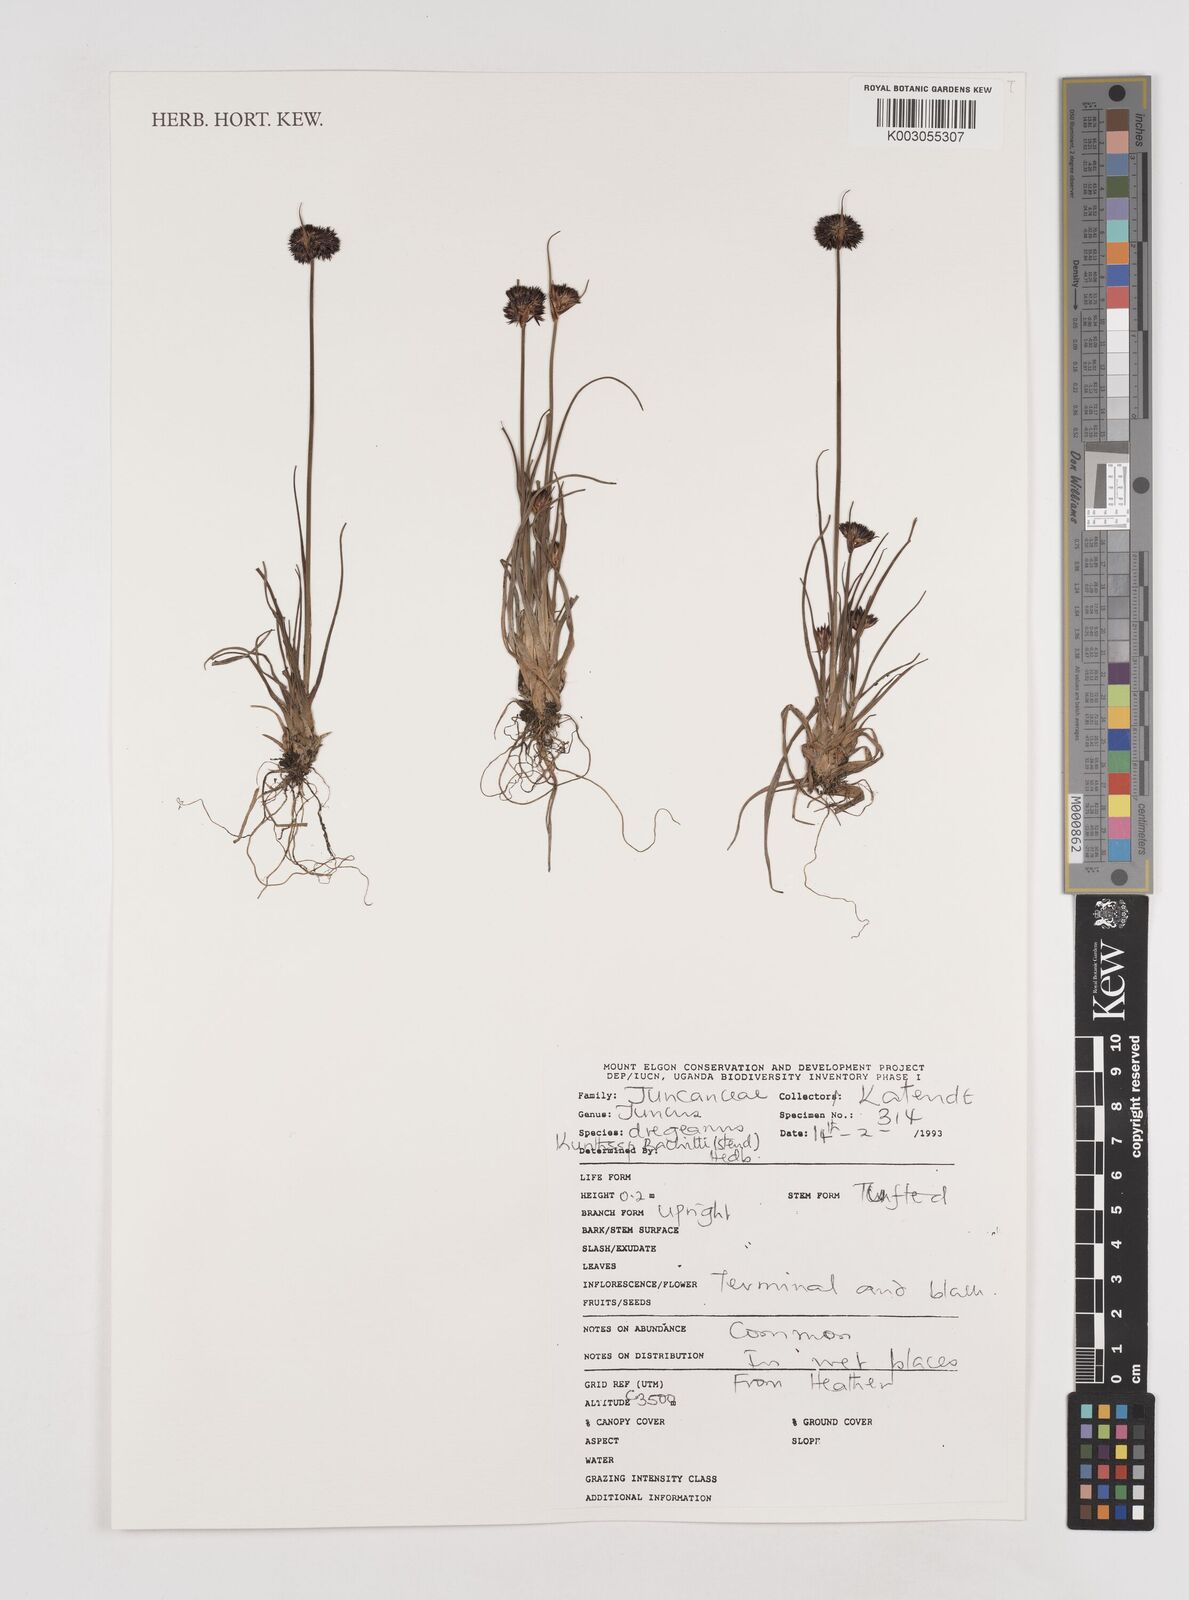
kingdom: Plantae
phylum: Tracheophyta
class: Liliopsida
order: Poales
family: Juncaceae
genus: Juncus
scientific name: Juncus dregeanus
